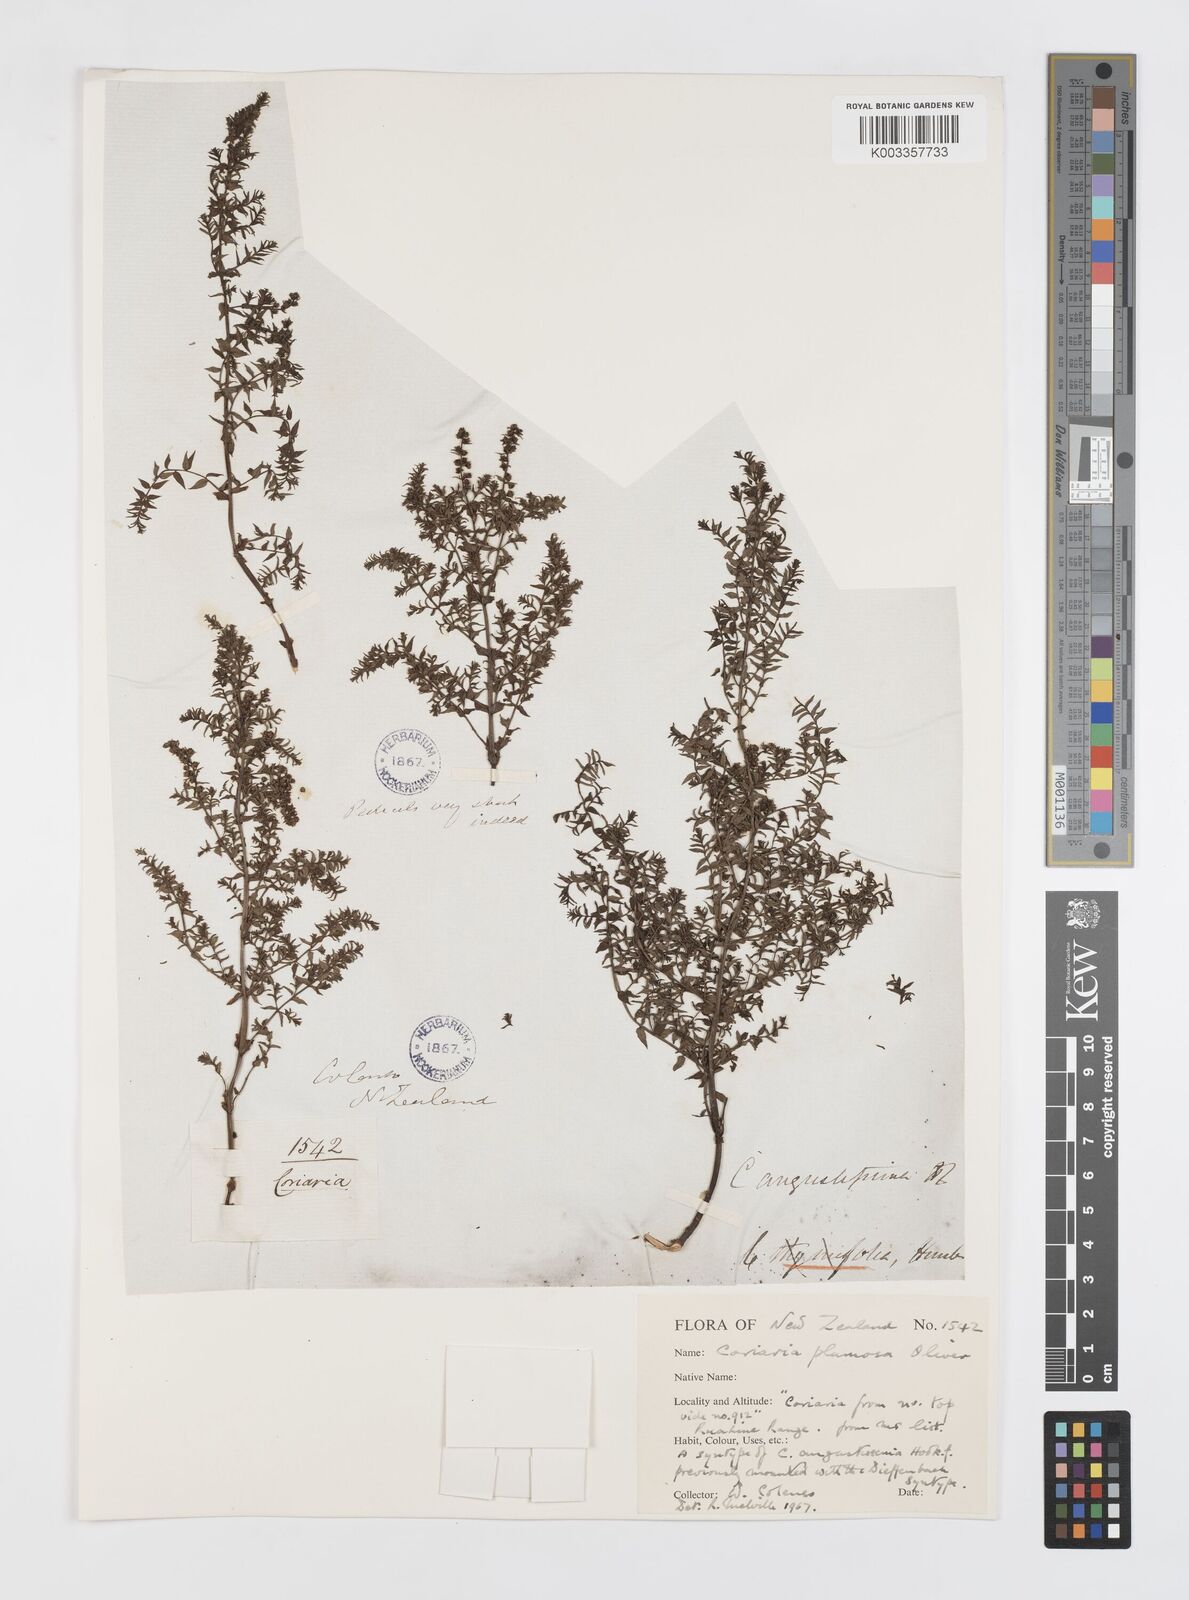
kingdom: Plantae
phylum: Tracheophyta
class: Magnoliopsida
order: Cucurbitales
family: Coriariaceae
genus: Coriaria
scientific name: Coriaria plumosa
